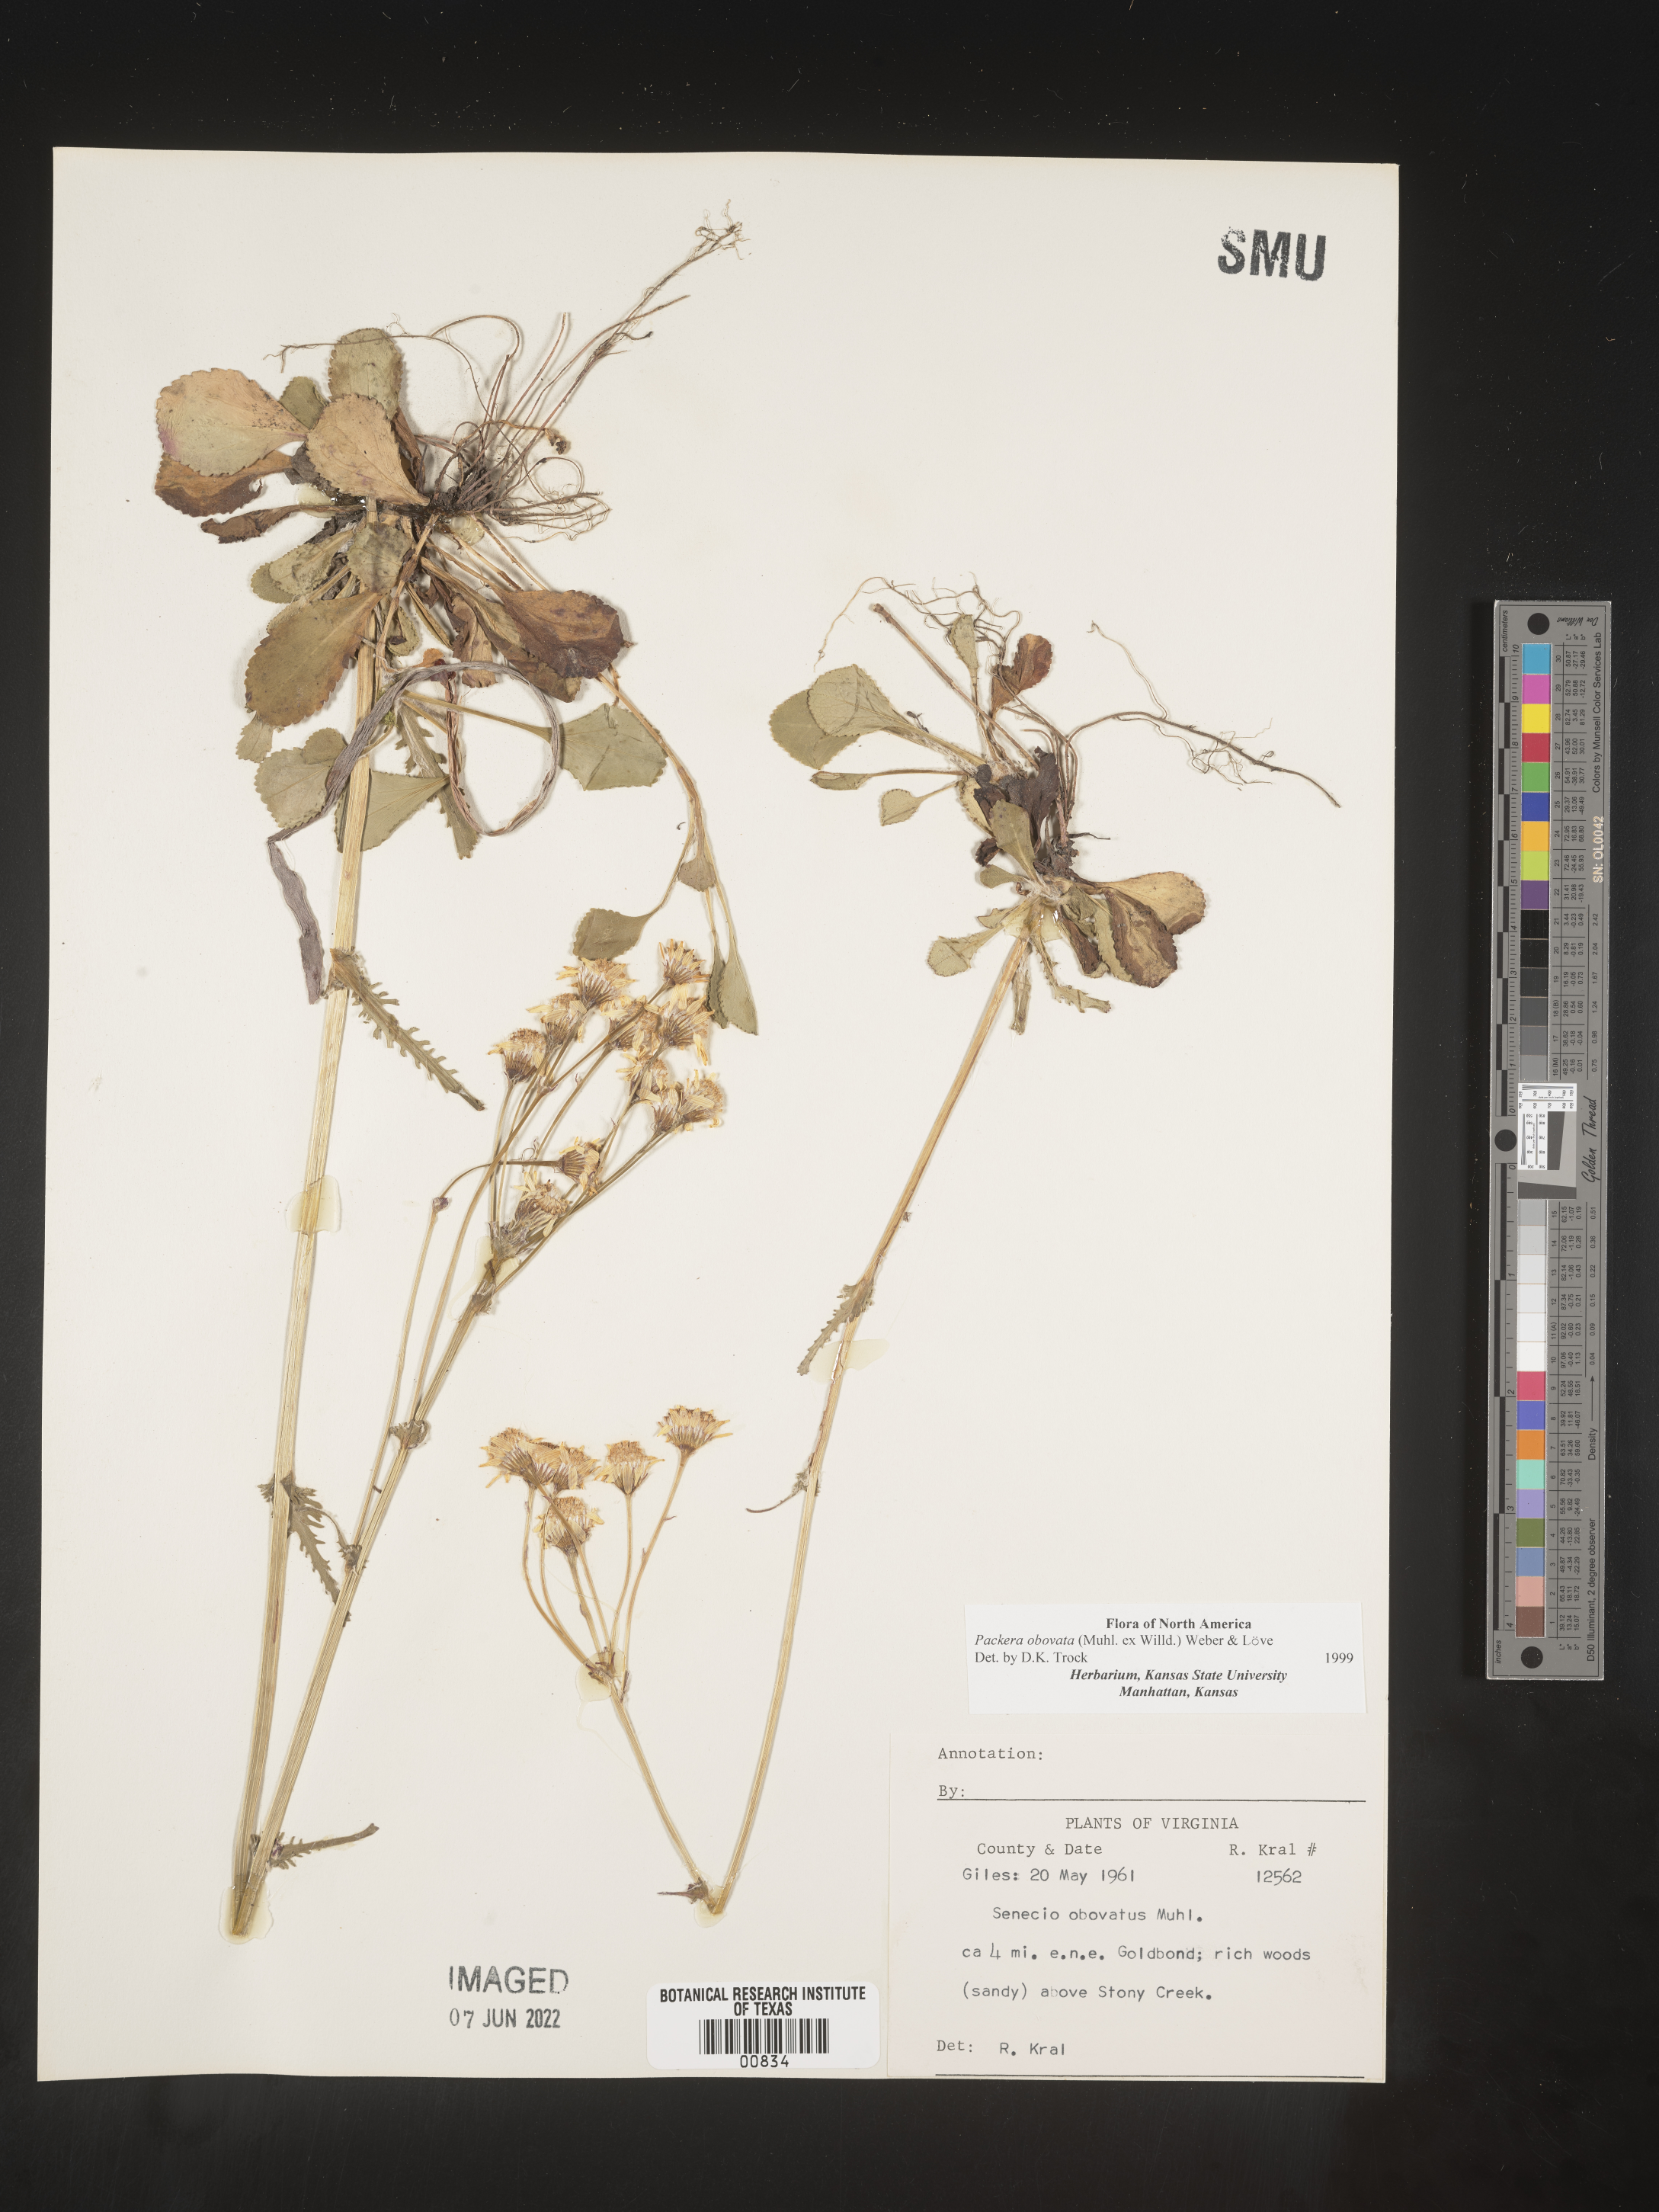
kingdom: Plantae
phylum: Tracheophyta
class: Magnoliopsida
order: Asterales
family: Asteraceae
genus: Packera
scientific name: Packera obovata
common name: Round-leaf ragwort
